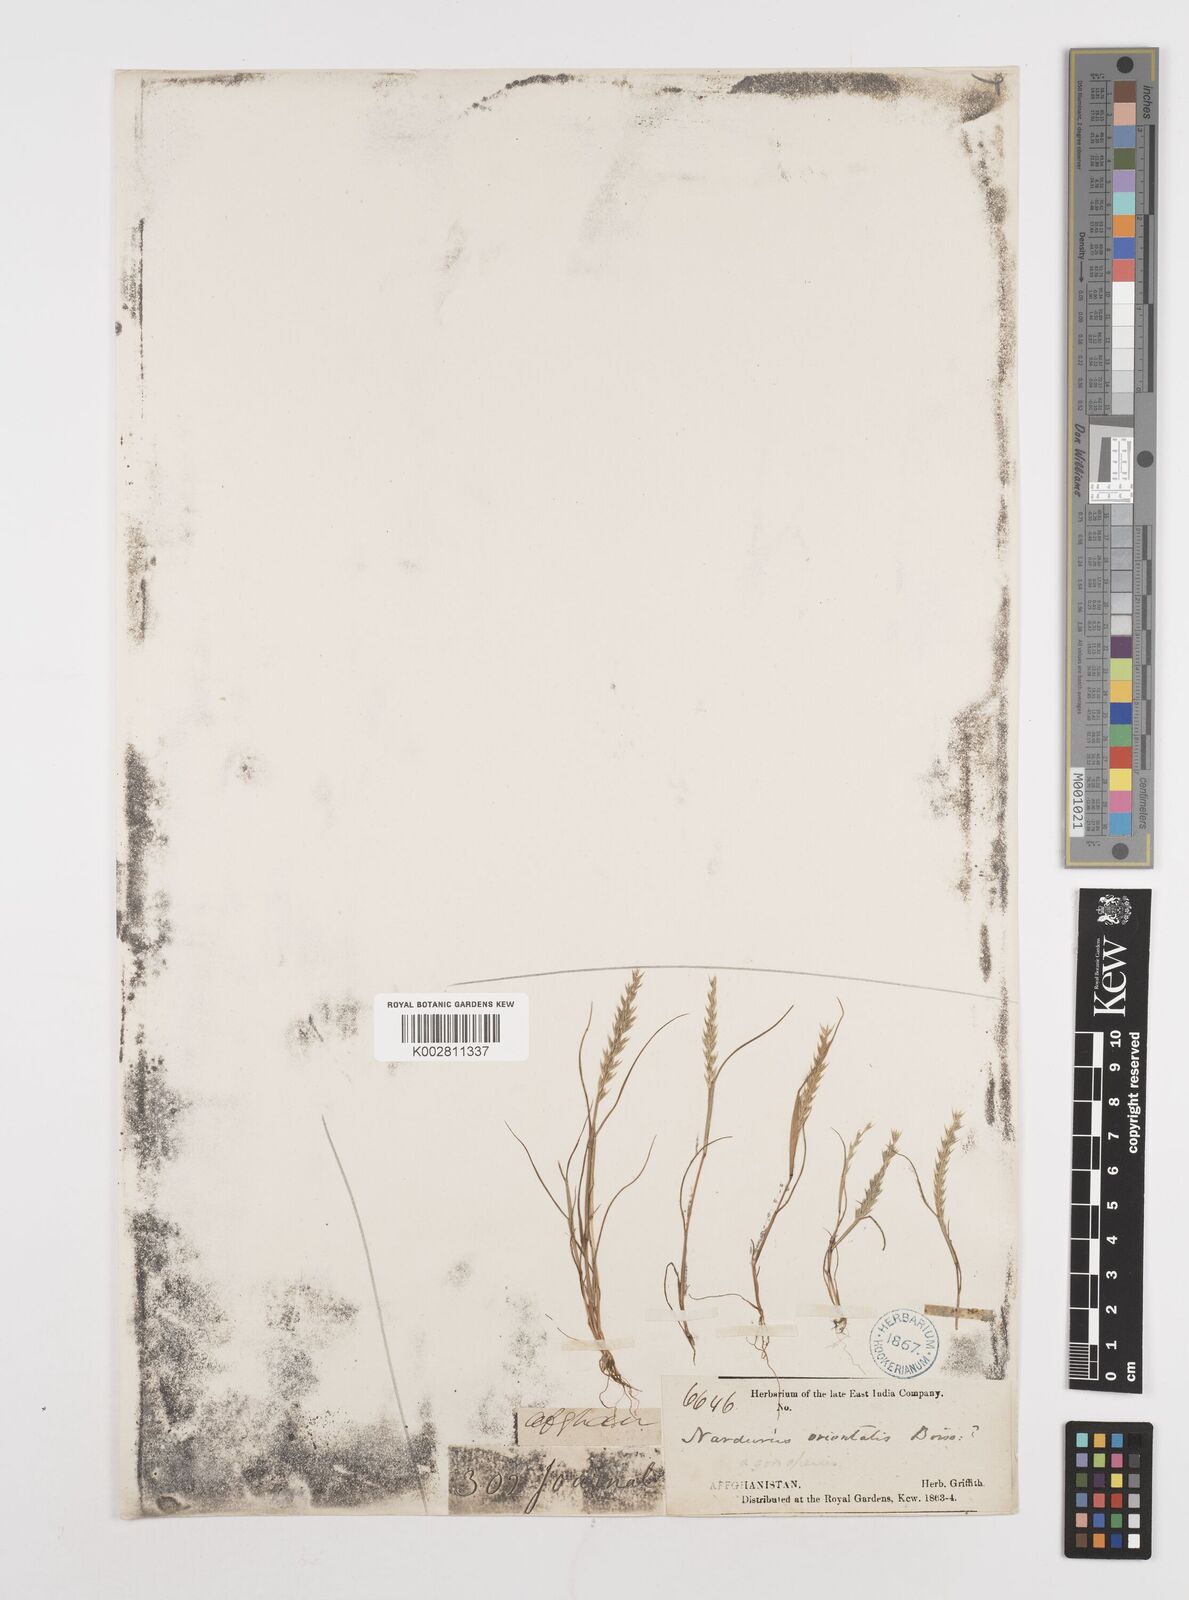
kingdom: Plantae
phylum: Tracheophyta
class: Liliopsida
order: Poales
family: Poaceae
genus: Festuca
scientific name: Festuca orientalis
